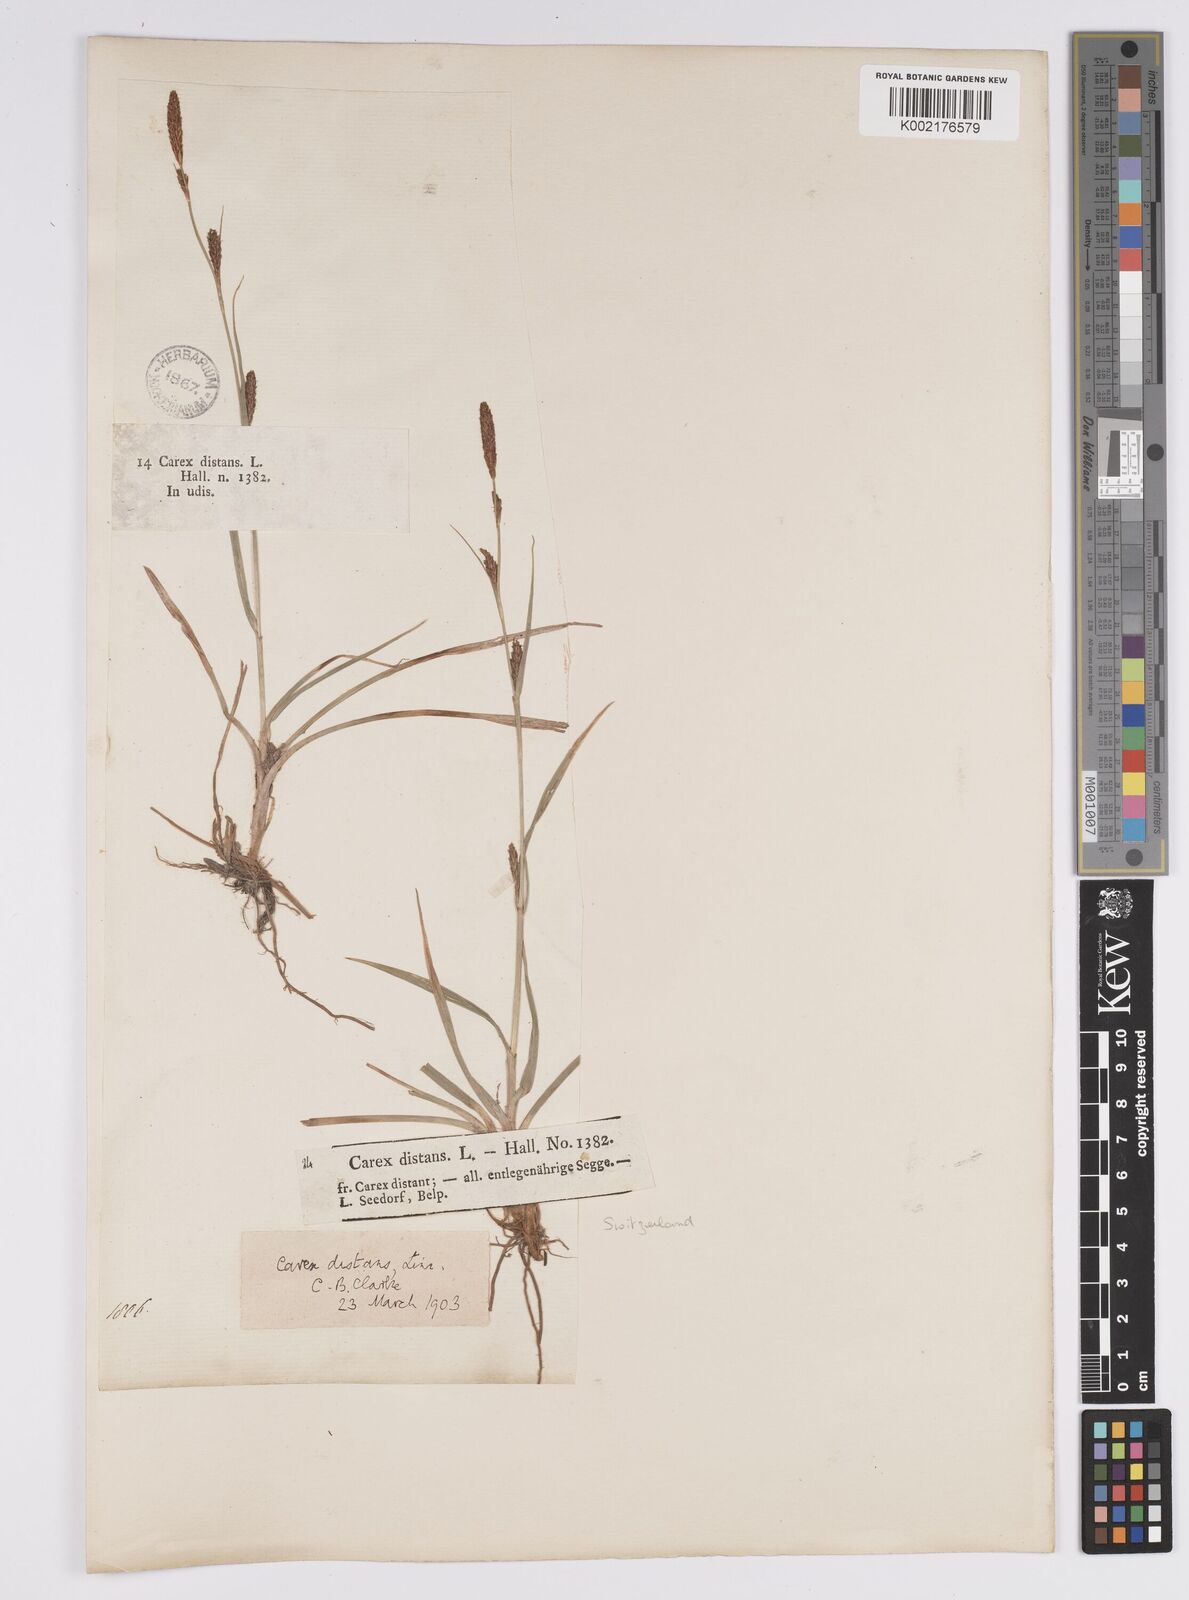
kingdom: Plantae
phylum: Tracheophyta
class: Liliopsida
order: Poales
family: Cyperaceae
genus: Carex
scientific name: Carex distans
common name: Distant sedge
